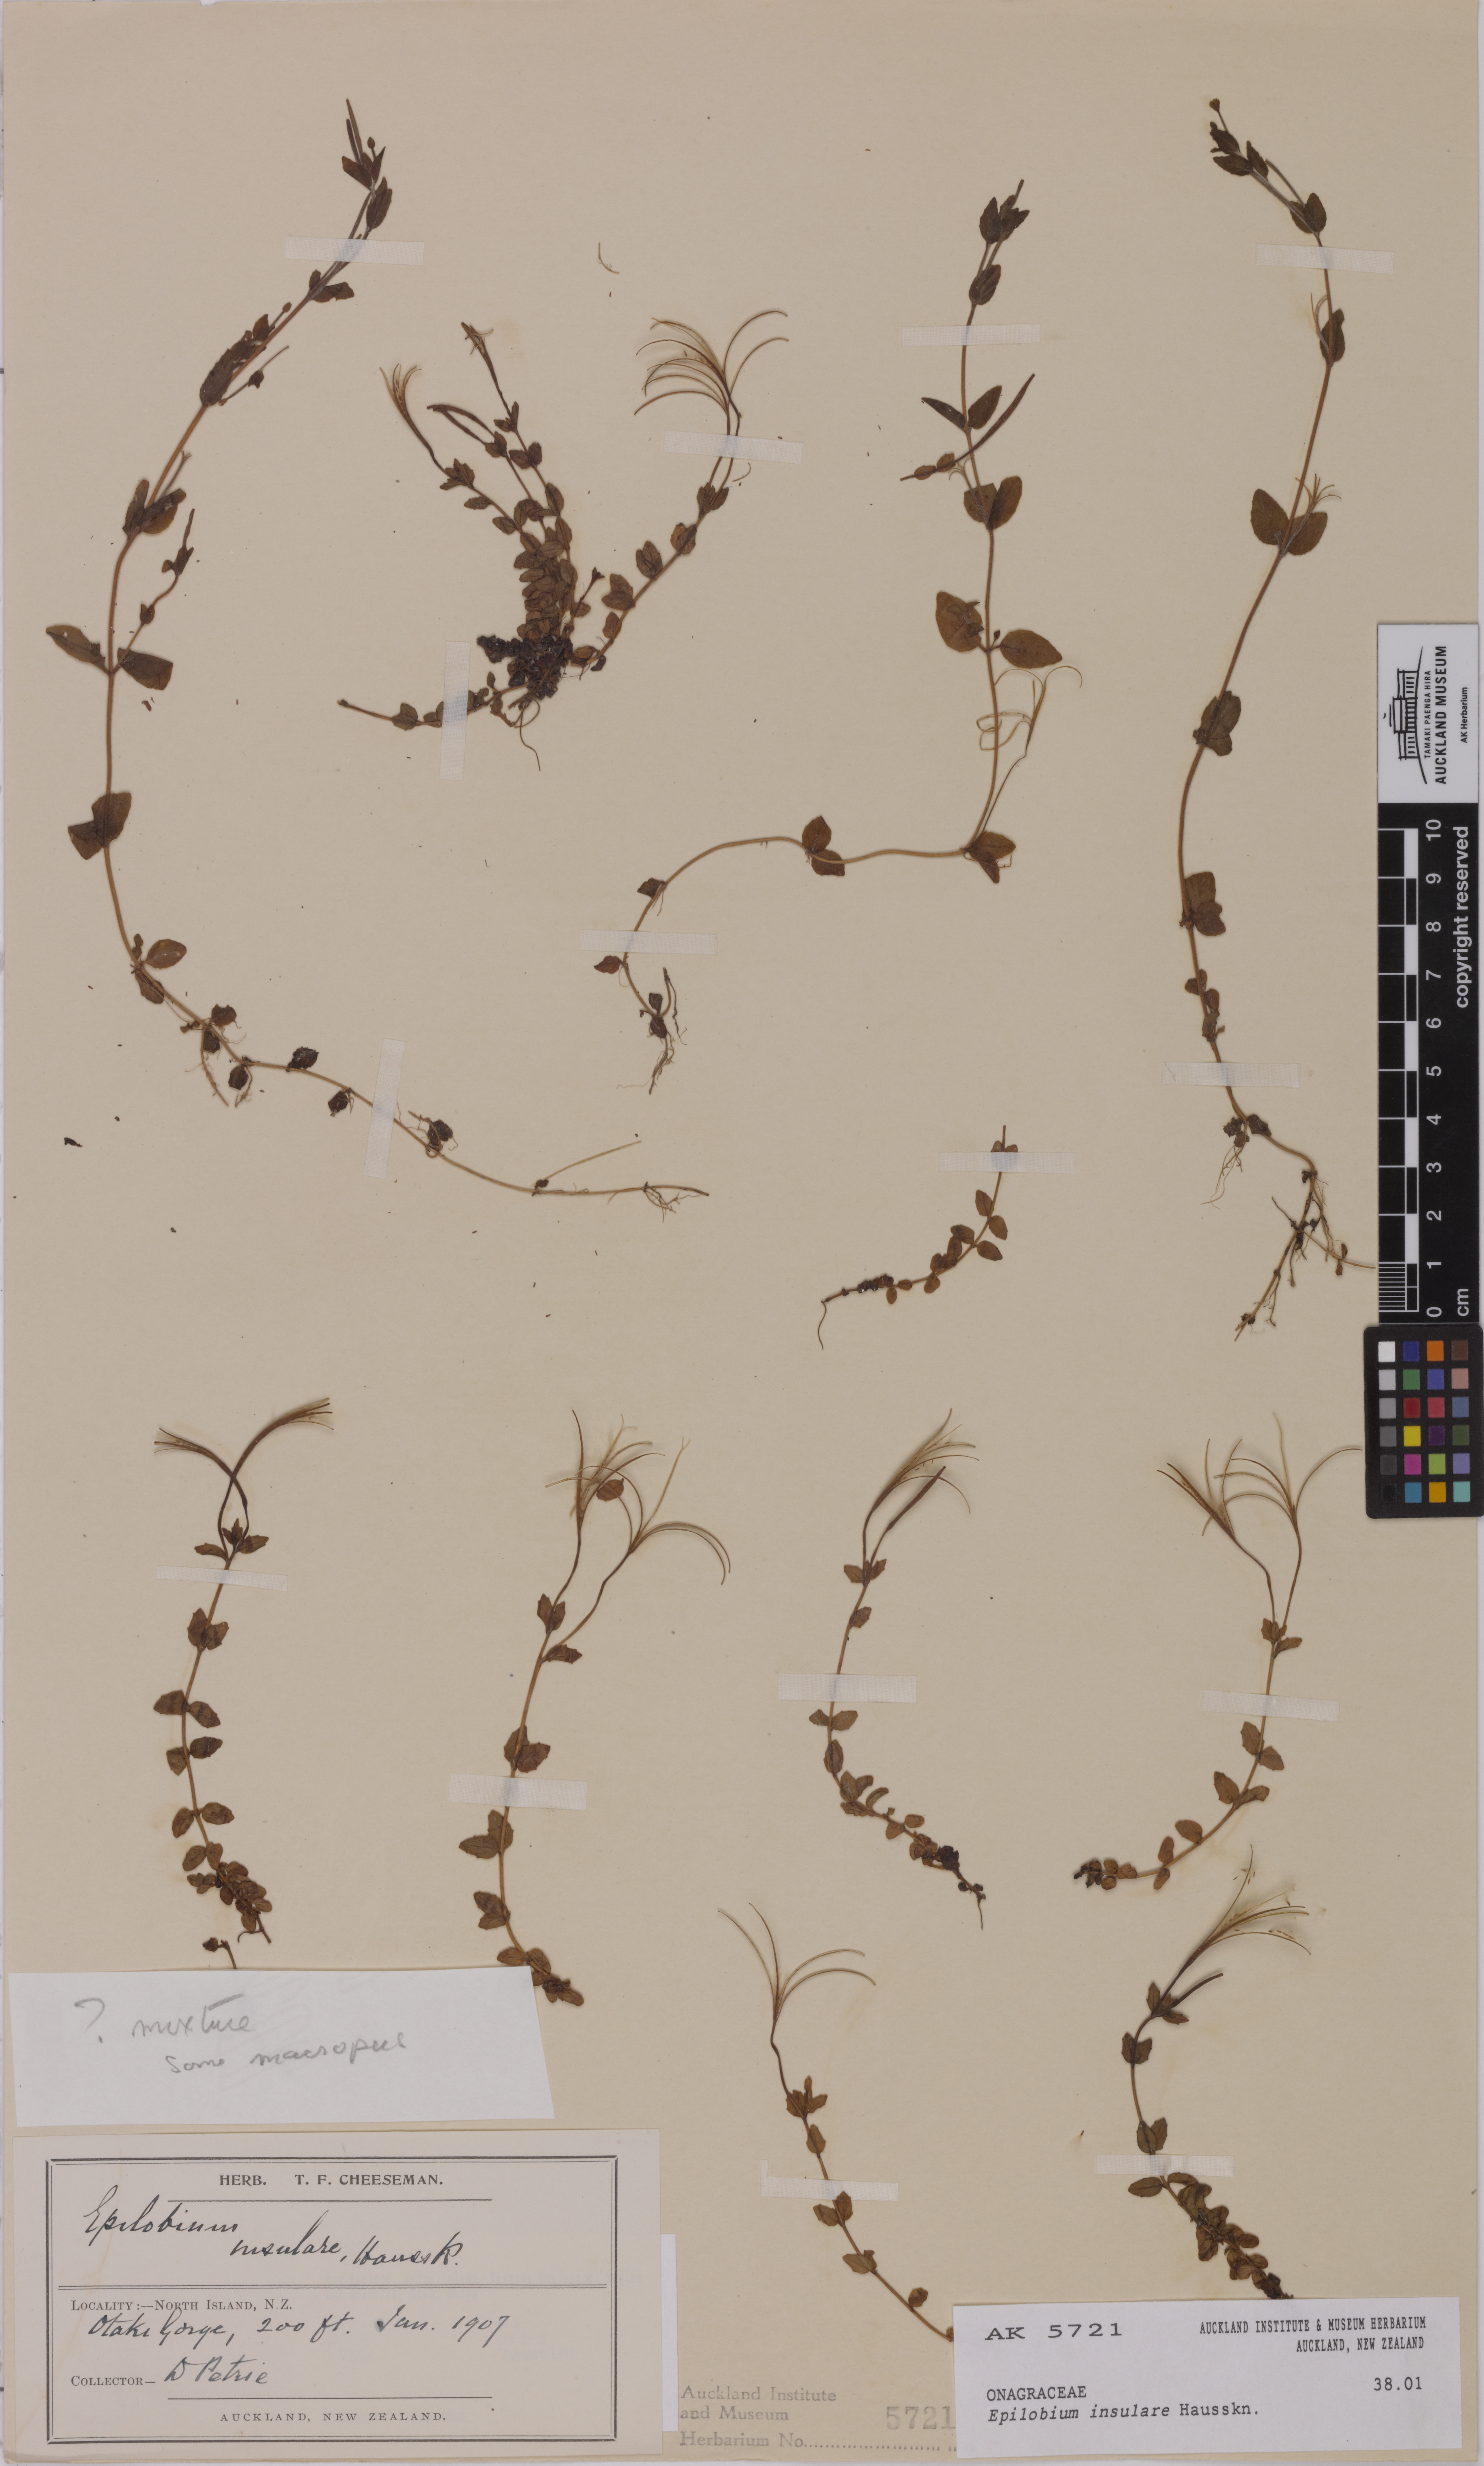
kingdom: Plantae
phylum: Tracheophyta
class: Magnoliopsida
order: Myrtales
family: Onagraceae
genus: Epilobium
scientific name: Epilobium insulare
